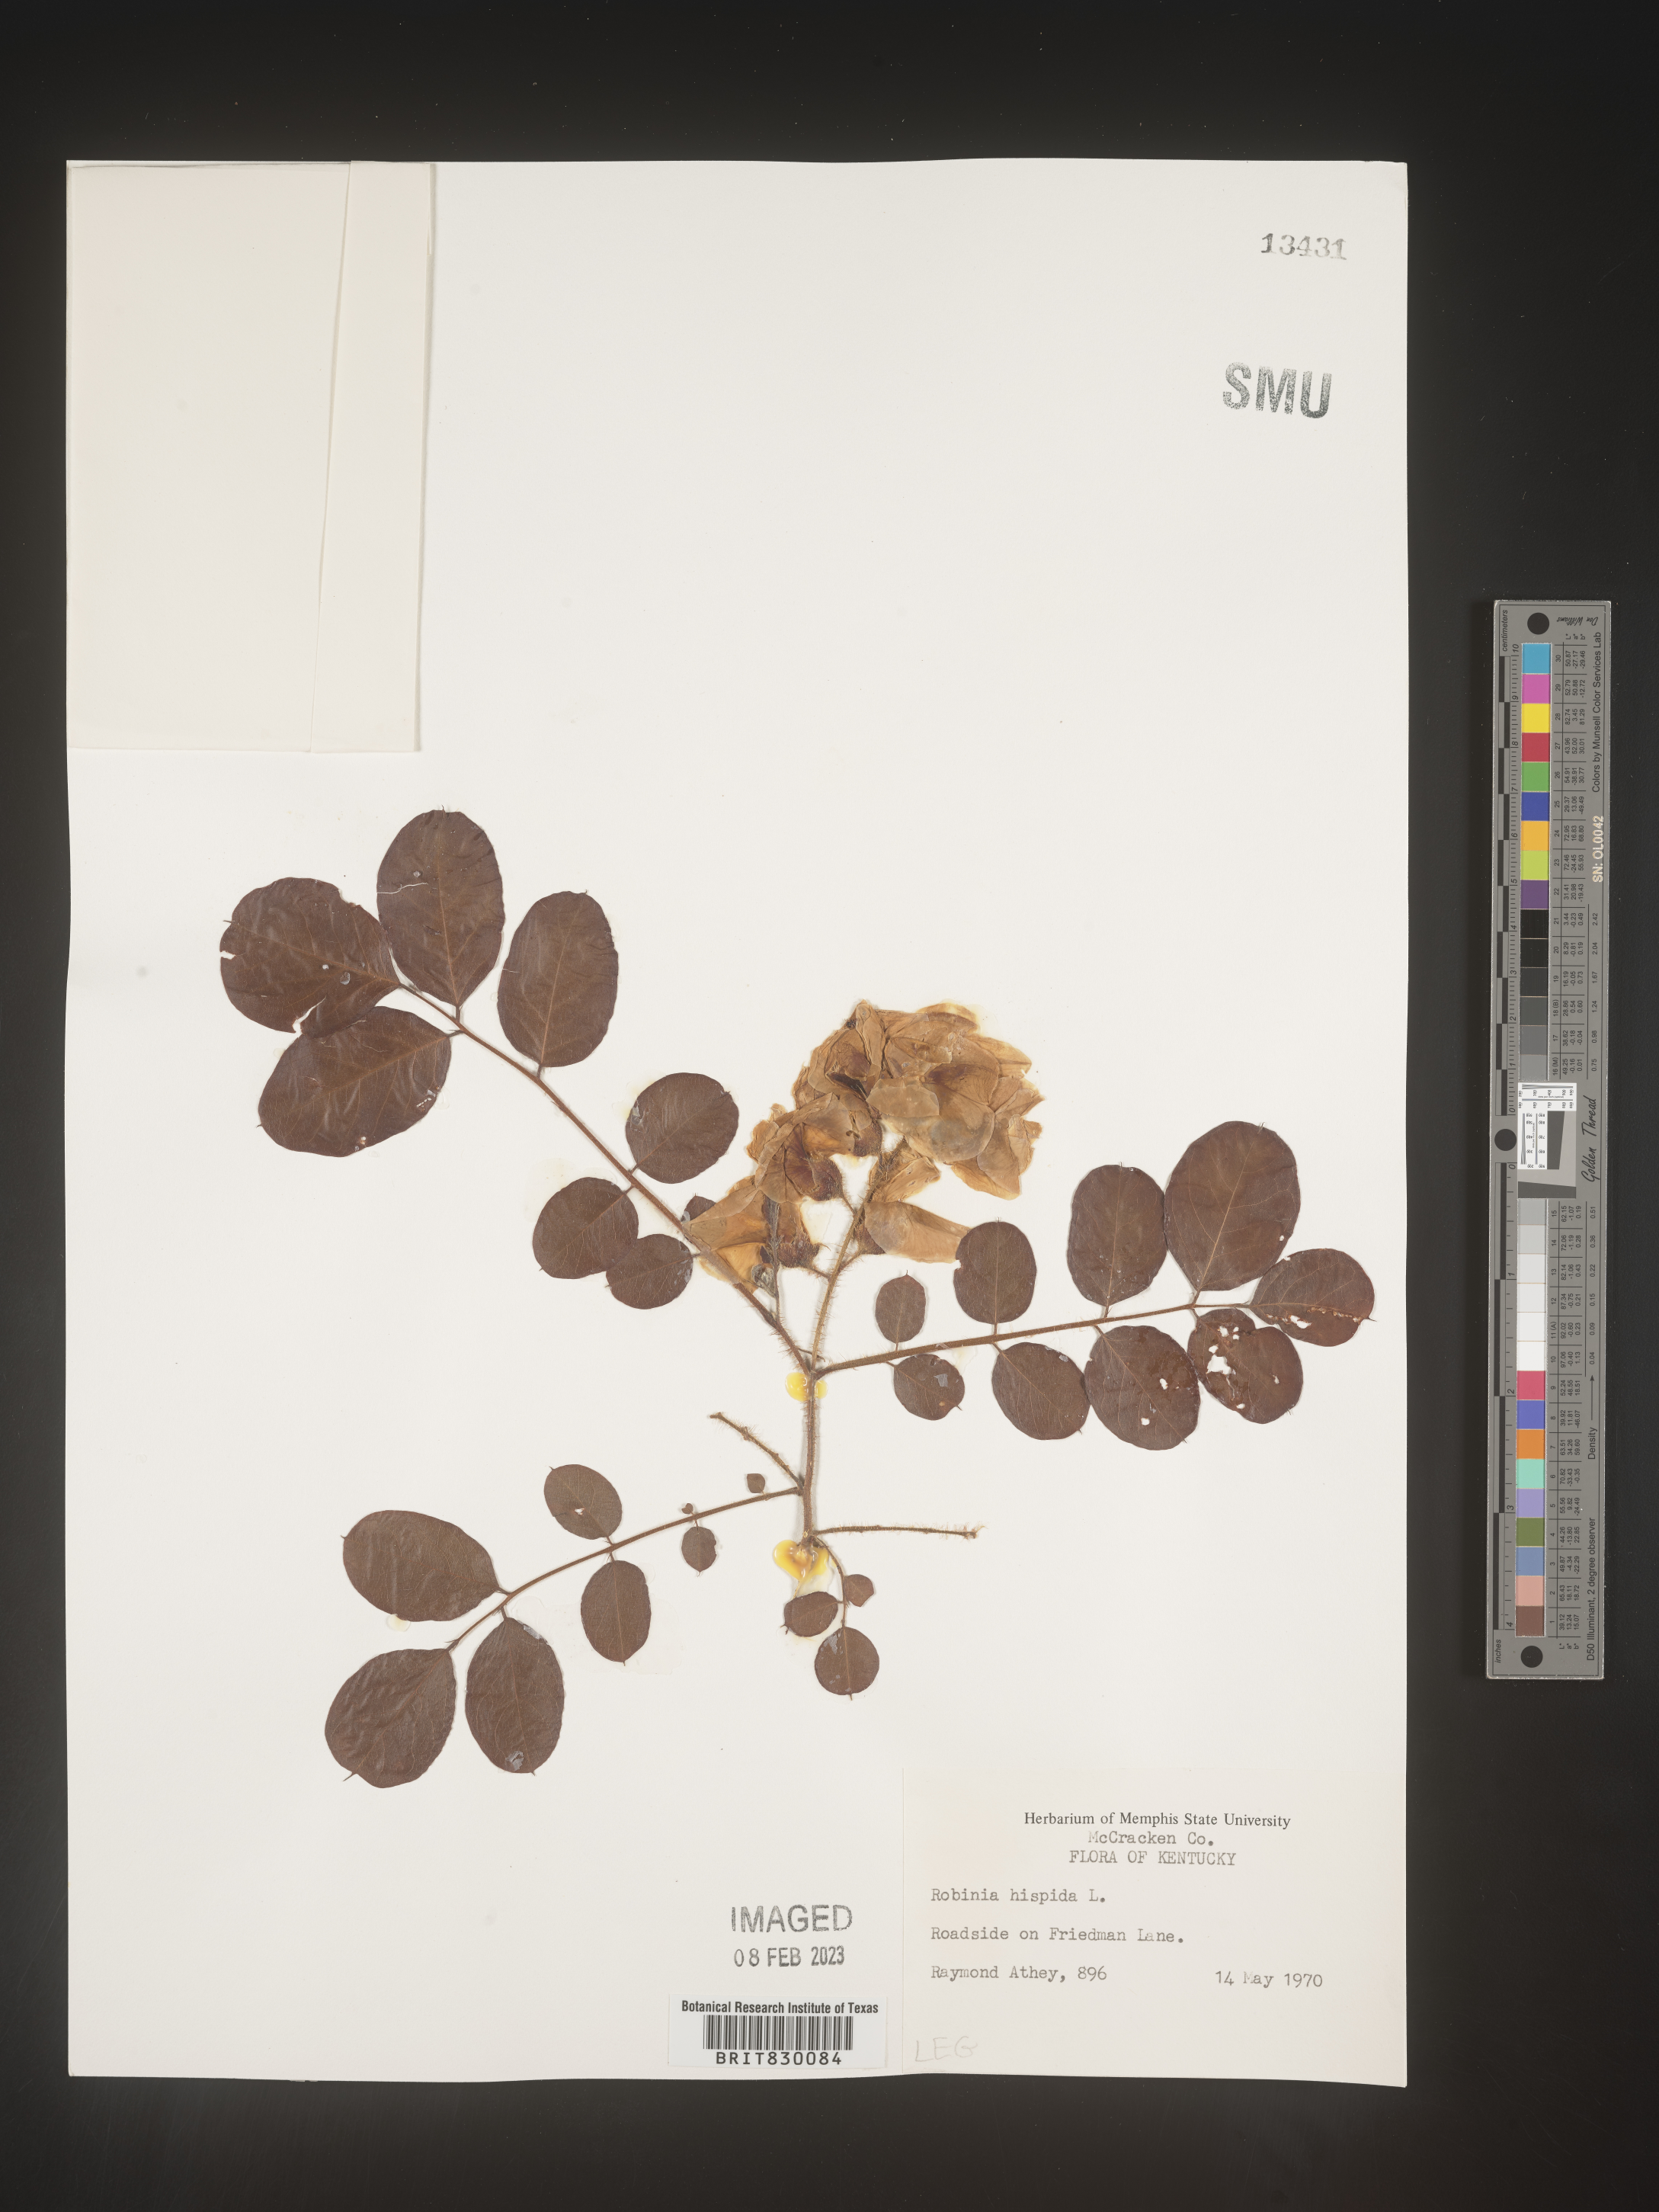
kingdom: Plantae
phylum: Tracheophyta
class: Magnoliopsida
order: Fabales
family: Fabaceae
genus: Robinia
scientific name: Robinia hispida
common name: Bristly locust
